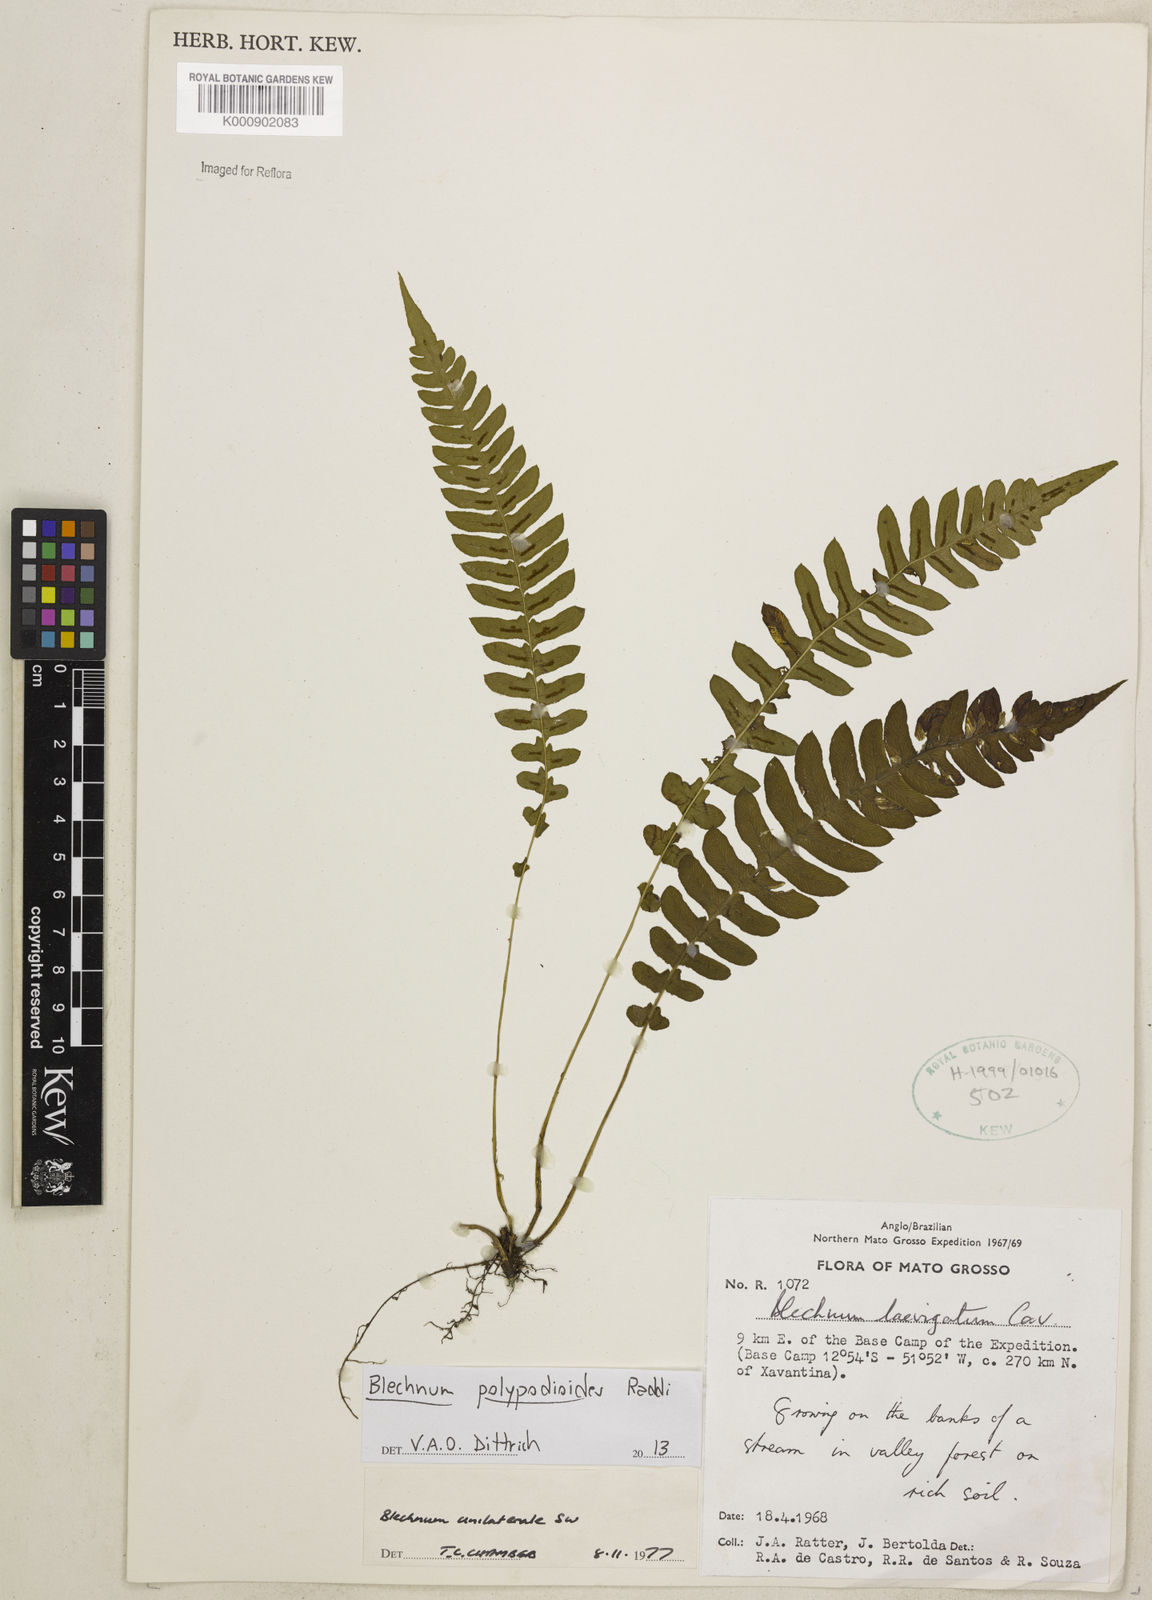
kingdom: Plantae
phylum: Tracheophyta
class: Polypodiopsida
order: Polypodiales
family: Blechnaceae
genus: Blechnum
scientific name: Blechnum polypodioides
